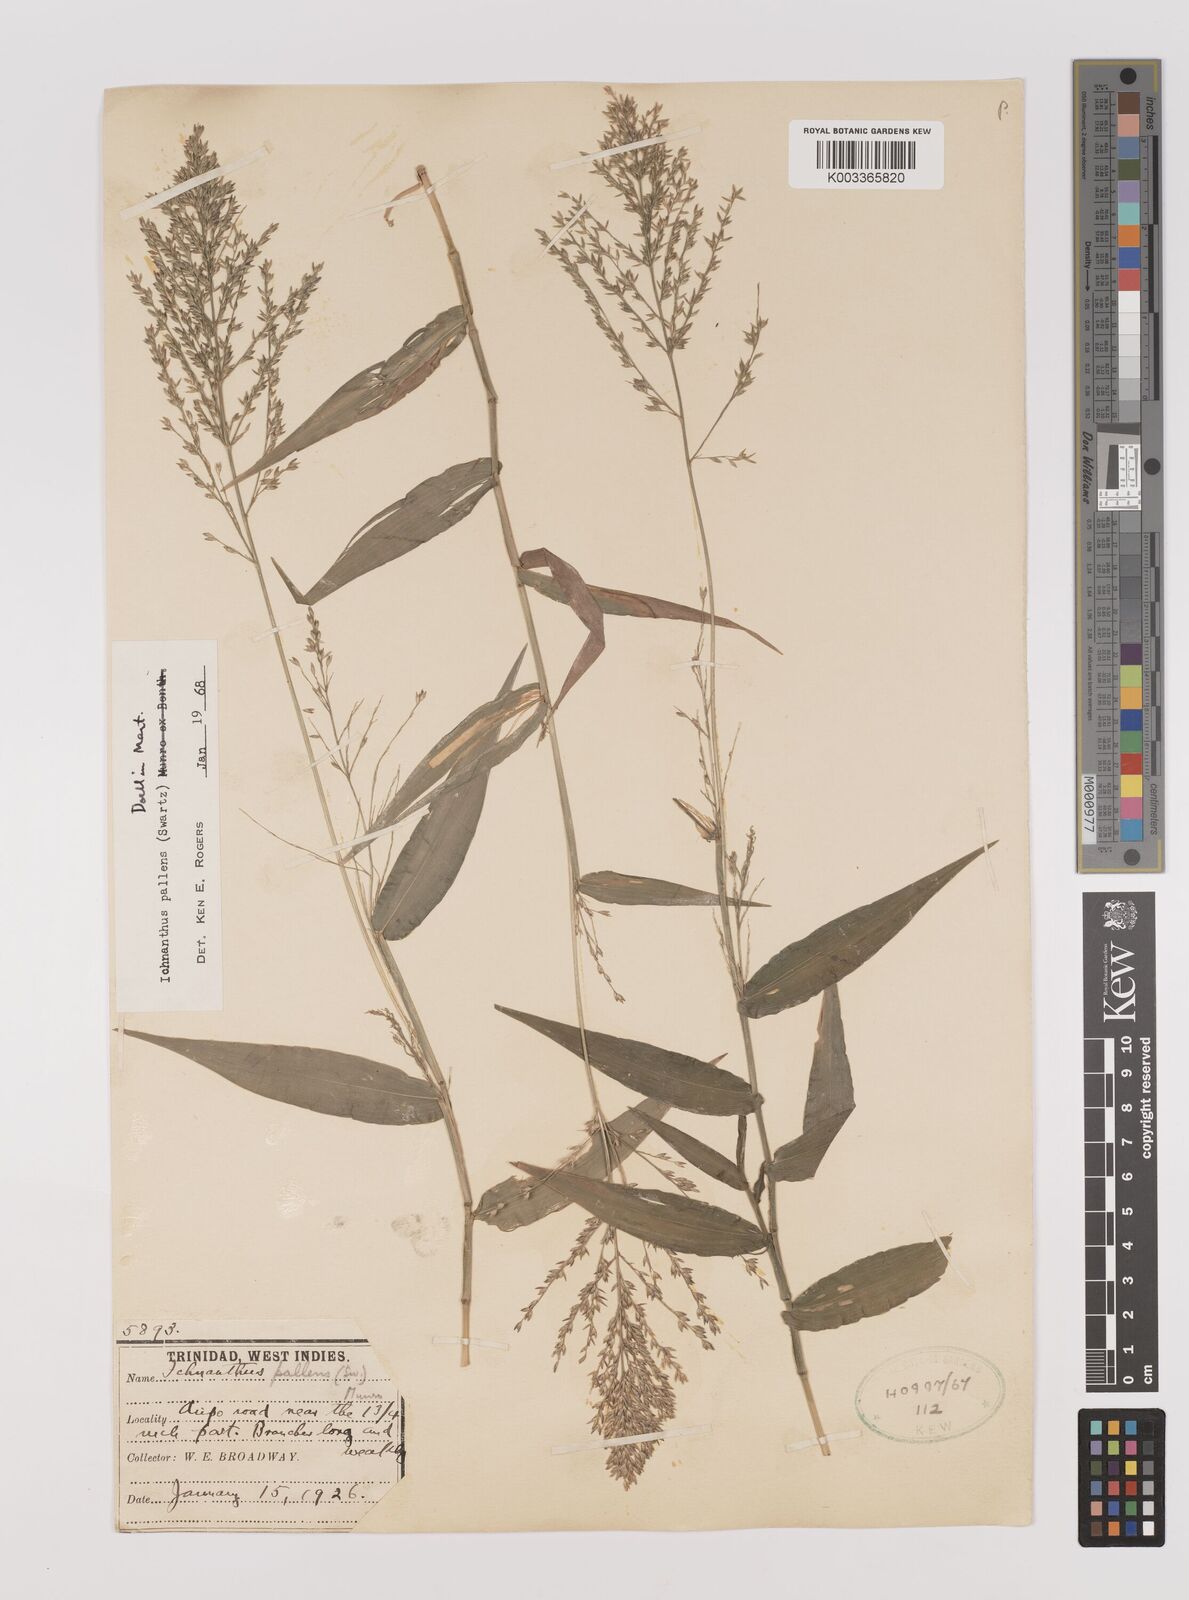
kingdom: Plantae
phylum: Tracheophyta
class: Liliopsida
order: Poales
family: Poaceae
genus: Ichnanthus
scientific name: Ichnanthus pallens
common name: Water grass
